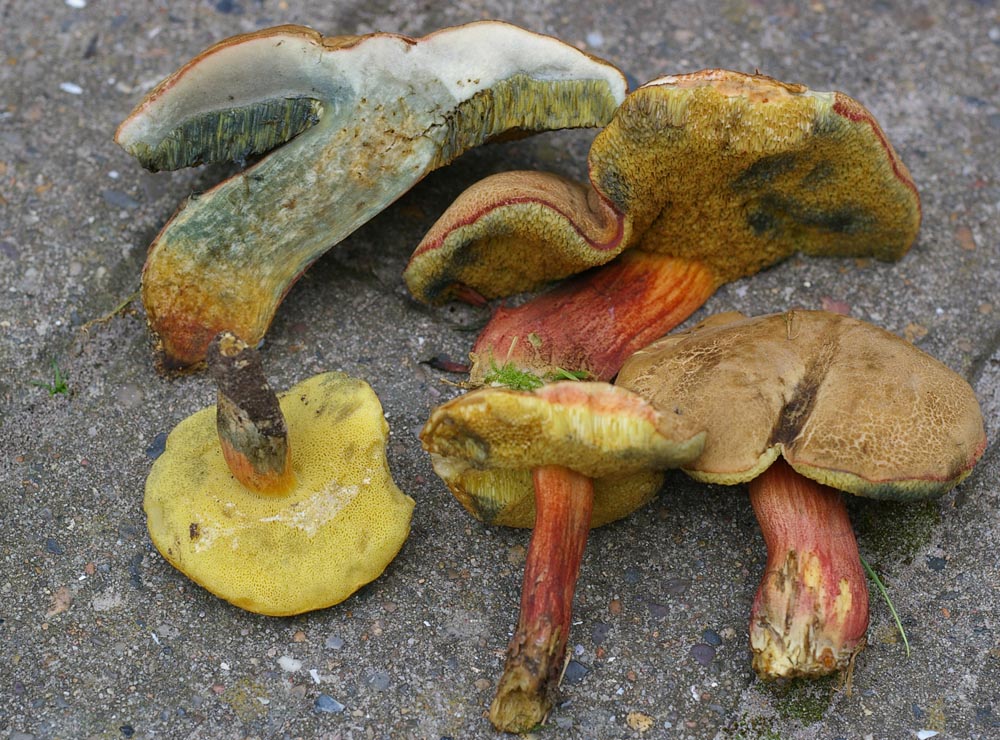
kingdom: Fungi
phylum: Basidiomycota
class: Agaricomycetes
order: Boletales
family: Boletaceae
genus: Xerocomellus
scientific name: Xerocomellus chrysenteron
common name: rødsprukken rørhat
